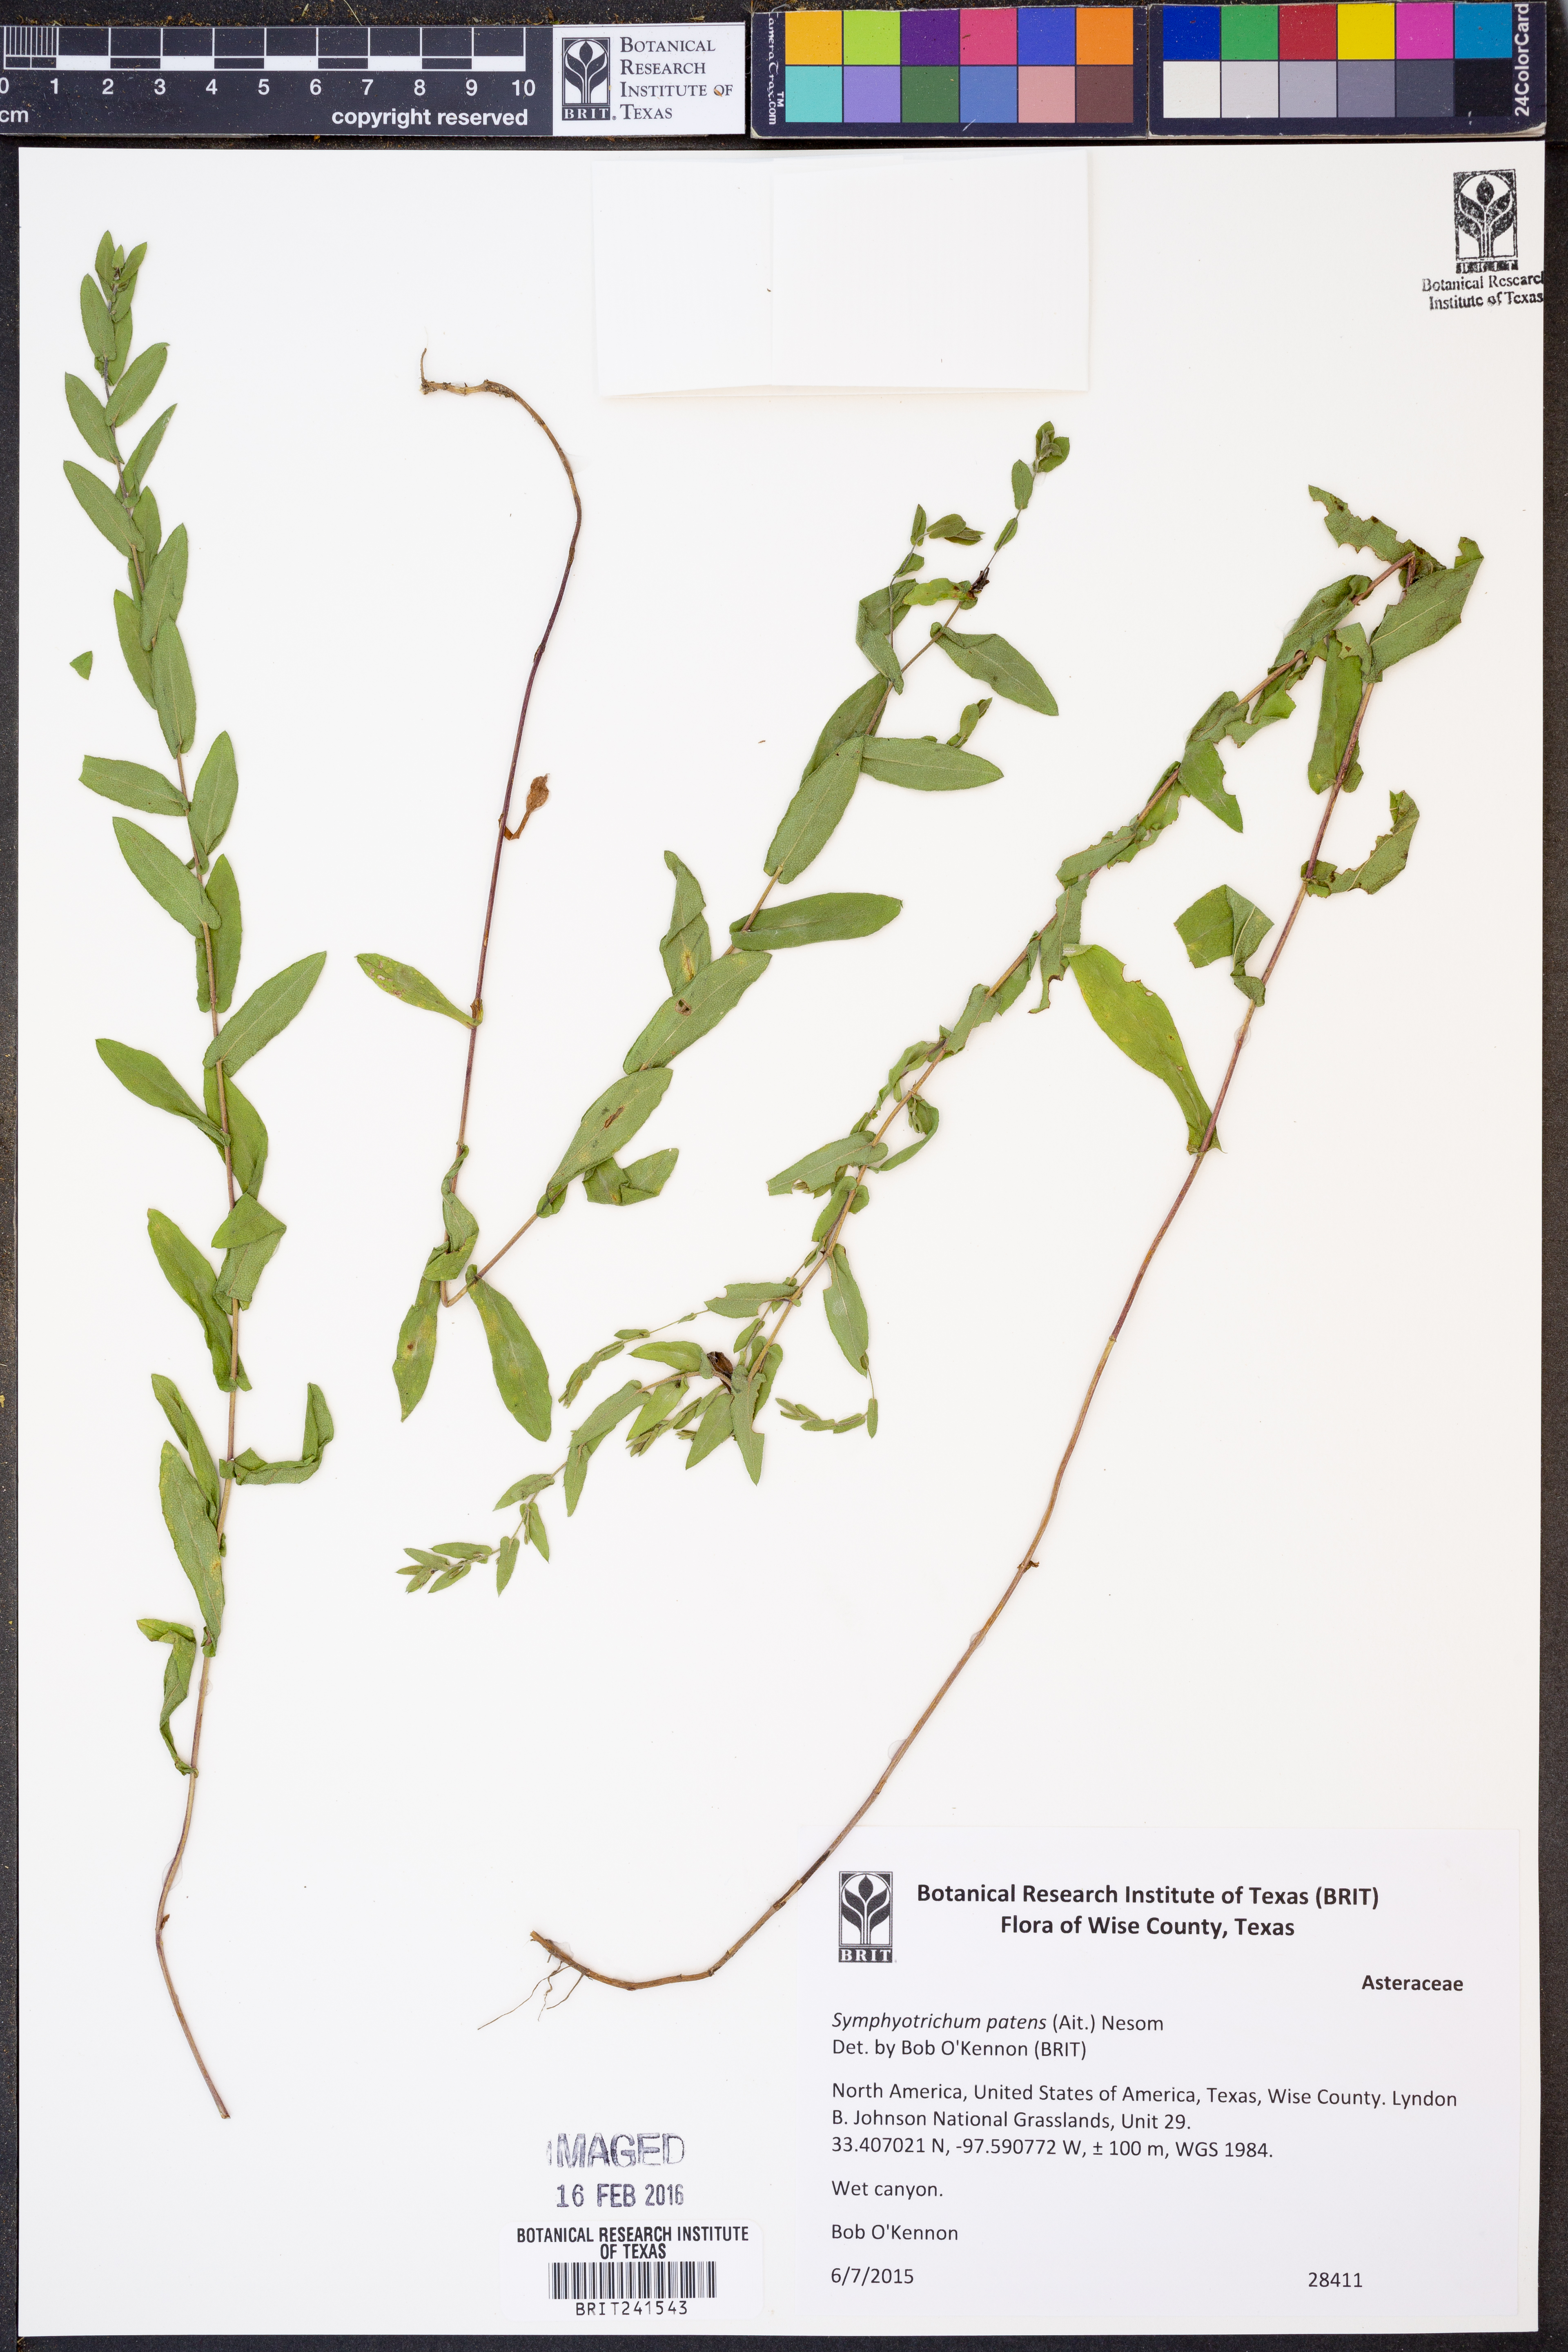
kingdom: Plantae
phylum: Tracheophyta
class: Magnoliopsida
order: Asterales
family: Asteraceae
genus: Symphyotrichum
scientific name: Symphyotrichum patens
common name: Late purple aster
